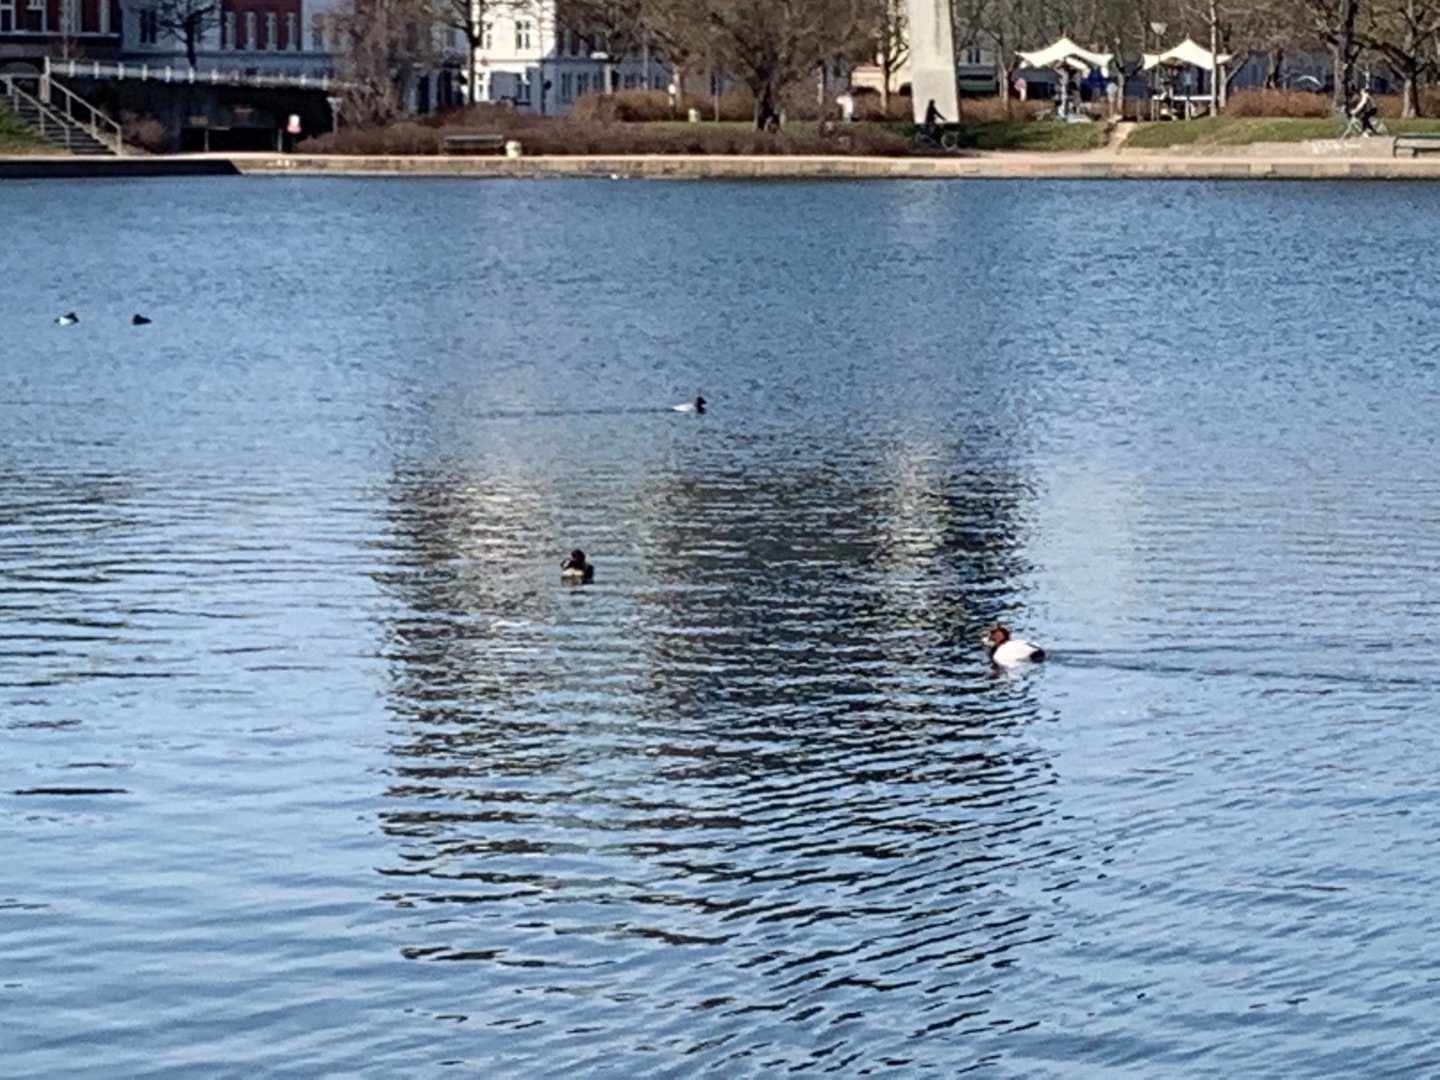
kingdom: Animalia
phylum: Chordata
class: Aves
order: Anseriformes
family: Anatidae
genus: Aythya
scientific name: Aythya ferina
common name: Taffeland
